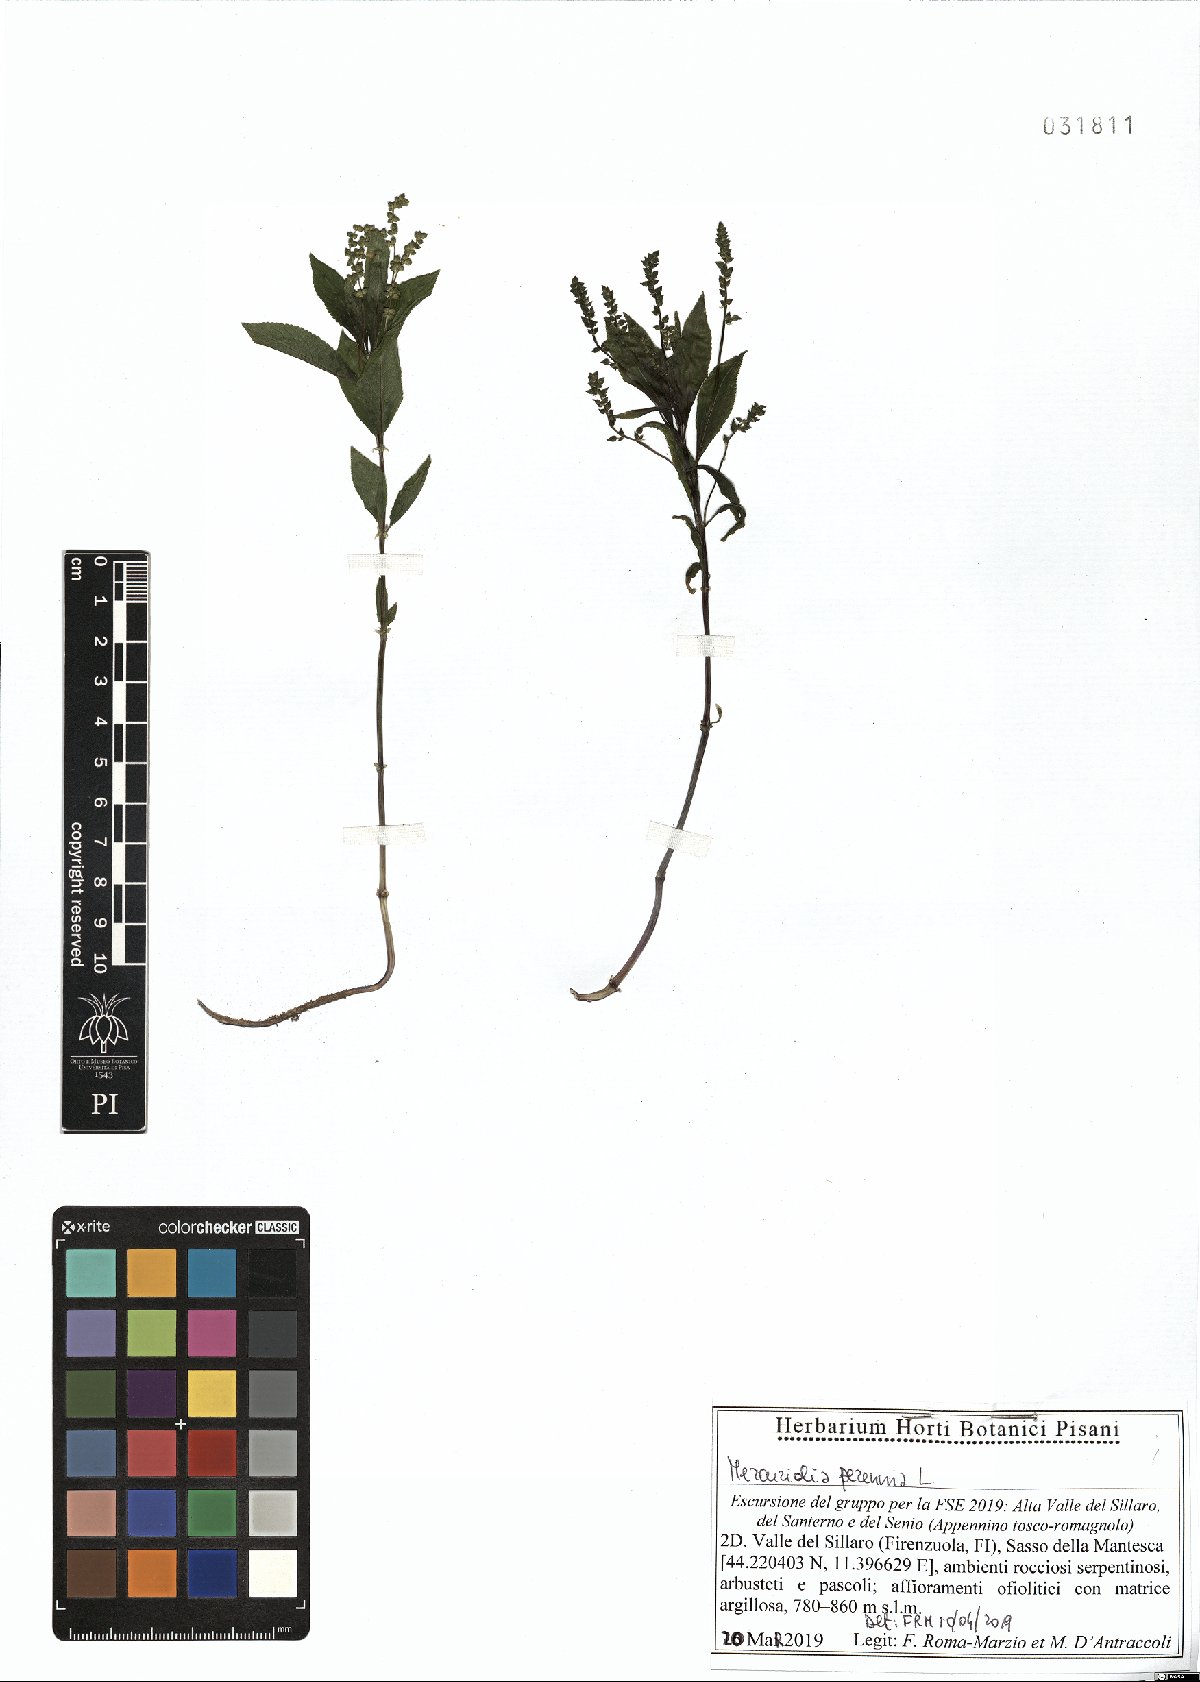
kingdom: Plantae
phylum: Tracheophyta
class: Magnoliopsida
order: Malpighiales
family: Euphorbiaceae
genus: Mercurialis
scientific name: Mercurialis perennis
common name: Dog mercury
